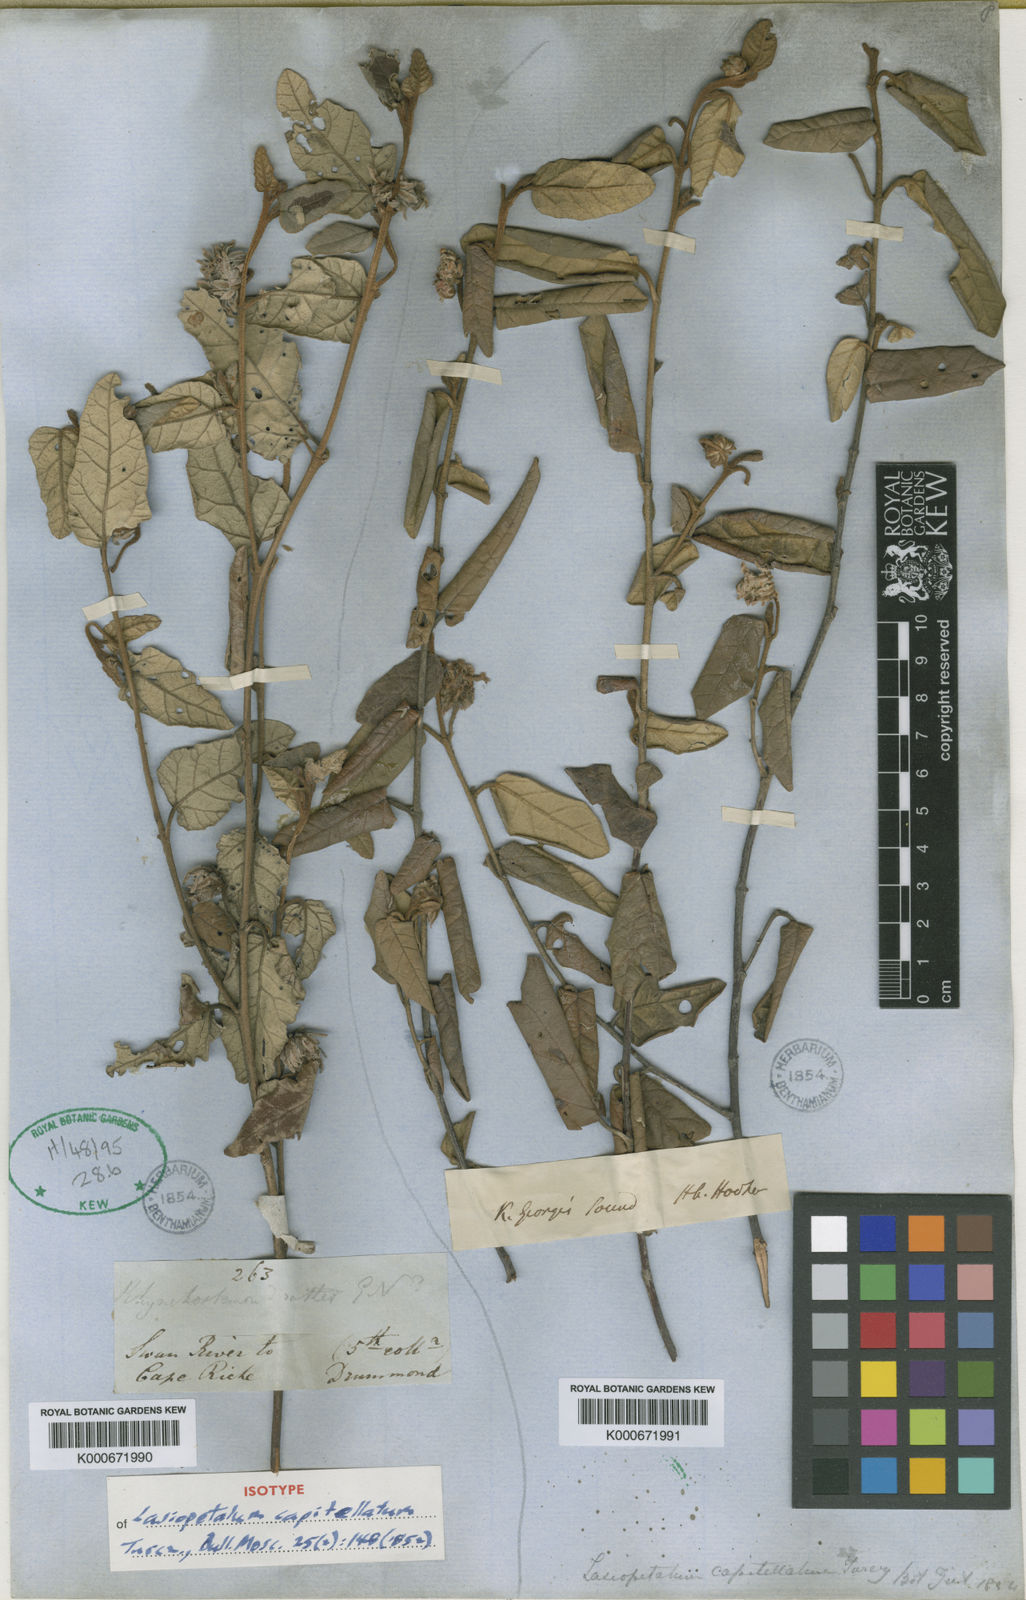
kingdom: Plantae
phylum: Tracheophyta
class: Magnoliopsida
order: Malvales
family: Malvaceae
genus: Lasiopetalum
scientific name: Lasiopetalum discolor
